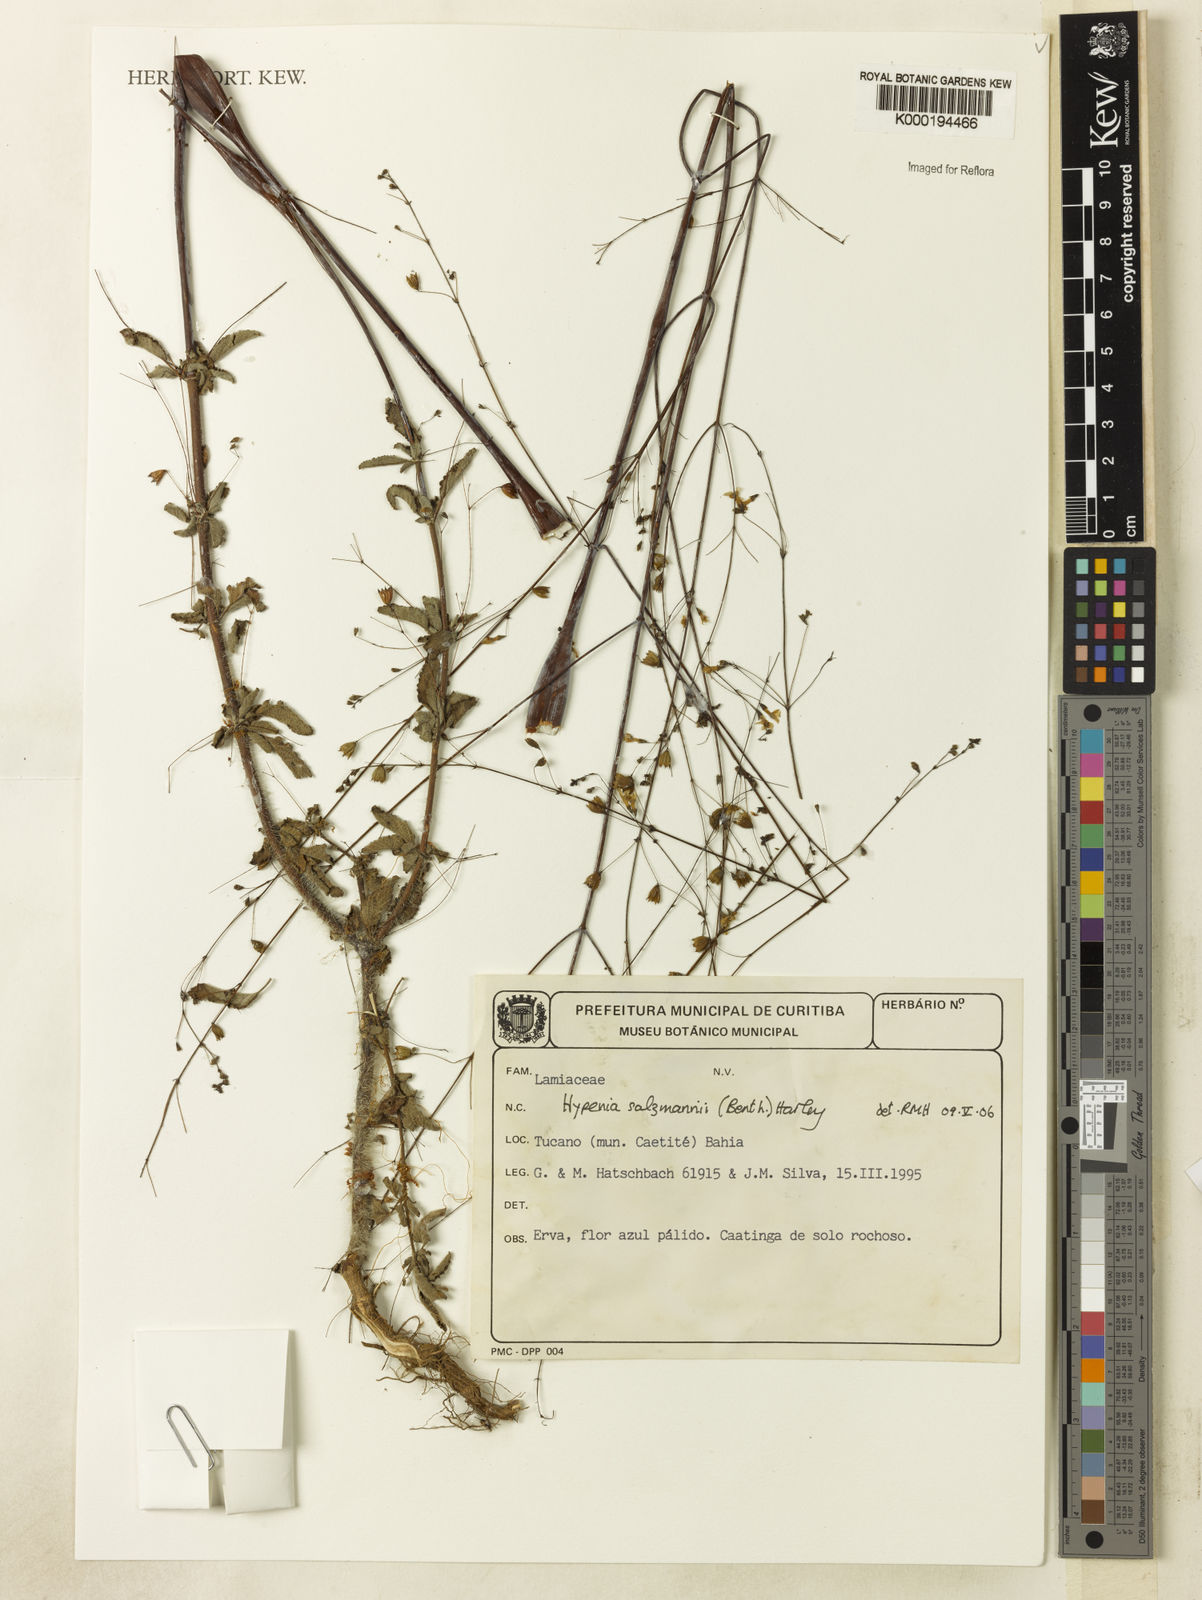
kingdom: Plantae
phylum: Tracheophyta
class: Magnoliopsida
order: Lamiales
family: Lamiaceae
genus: Hypenia
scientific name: Hypenia salzmannii
